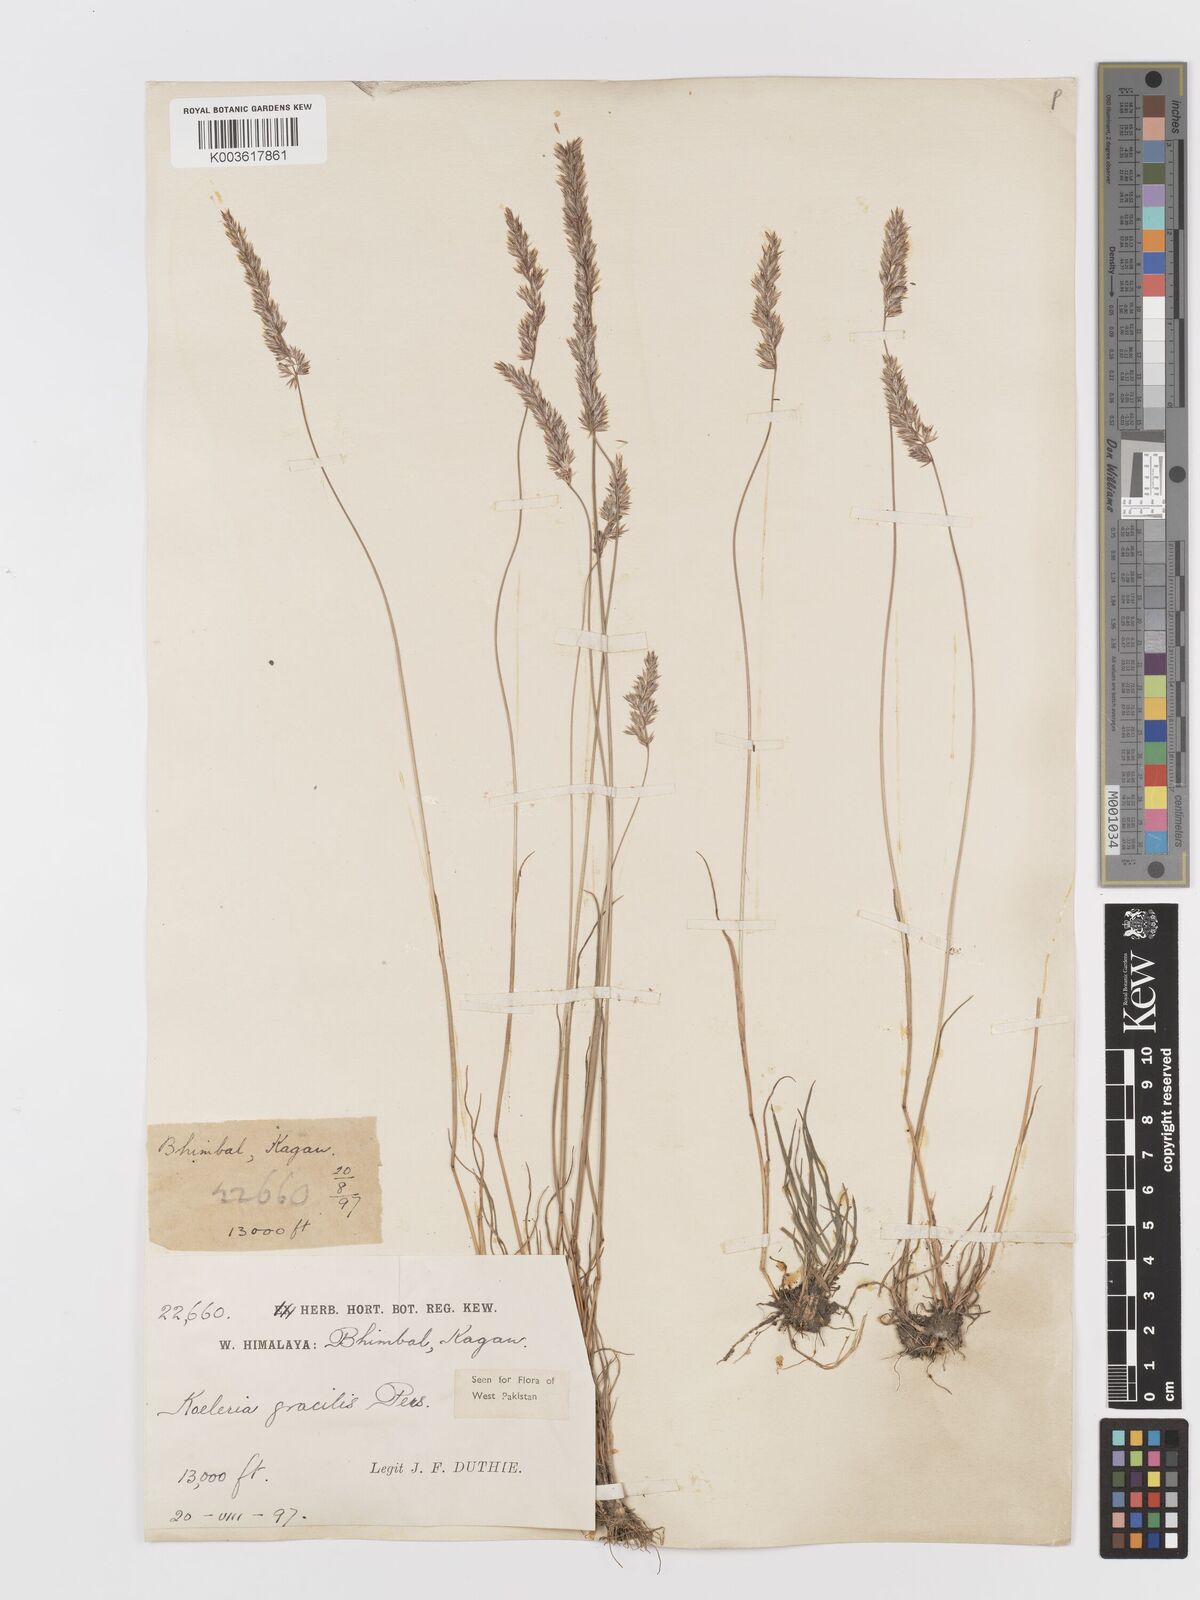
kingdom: Plantae
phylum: Tracheophyta
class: Liliopsida
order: Poales
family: Poaceae
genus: Koeleria
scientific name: Koeleria macrantha
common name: Crested hair-grass
